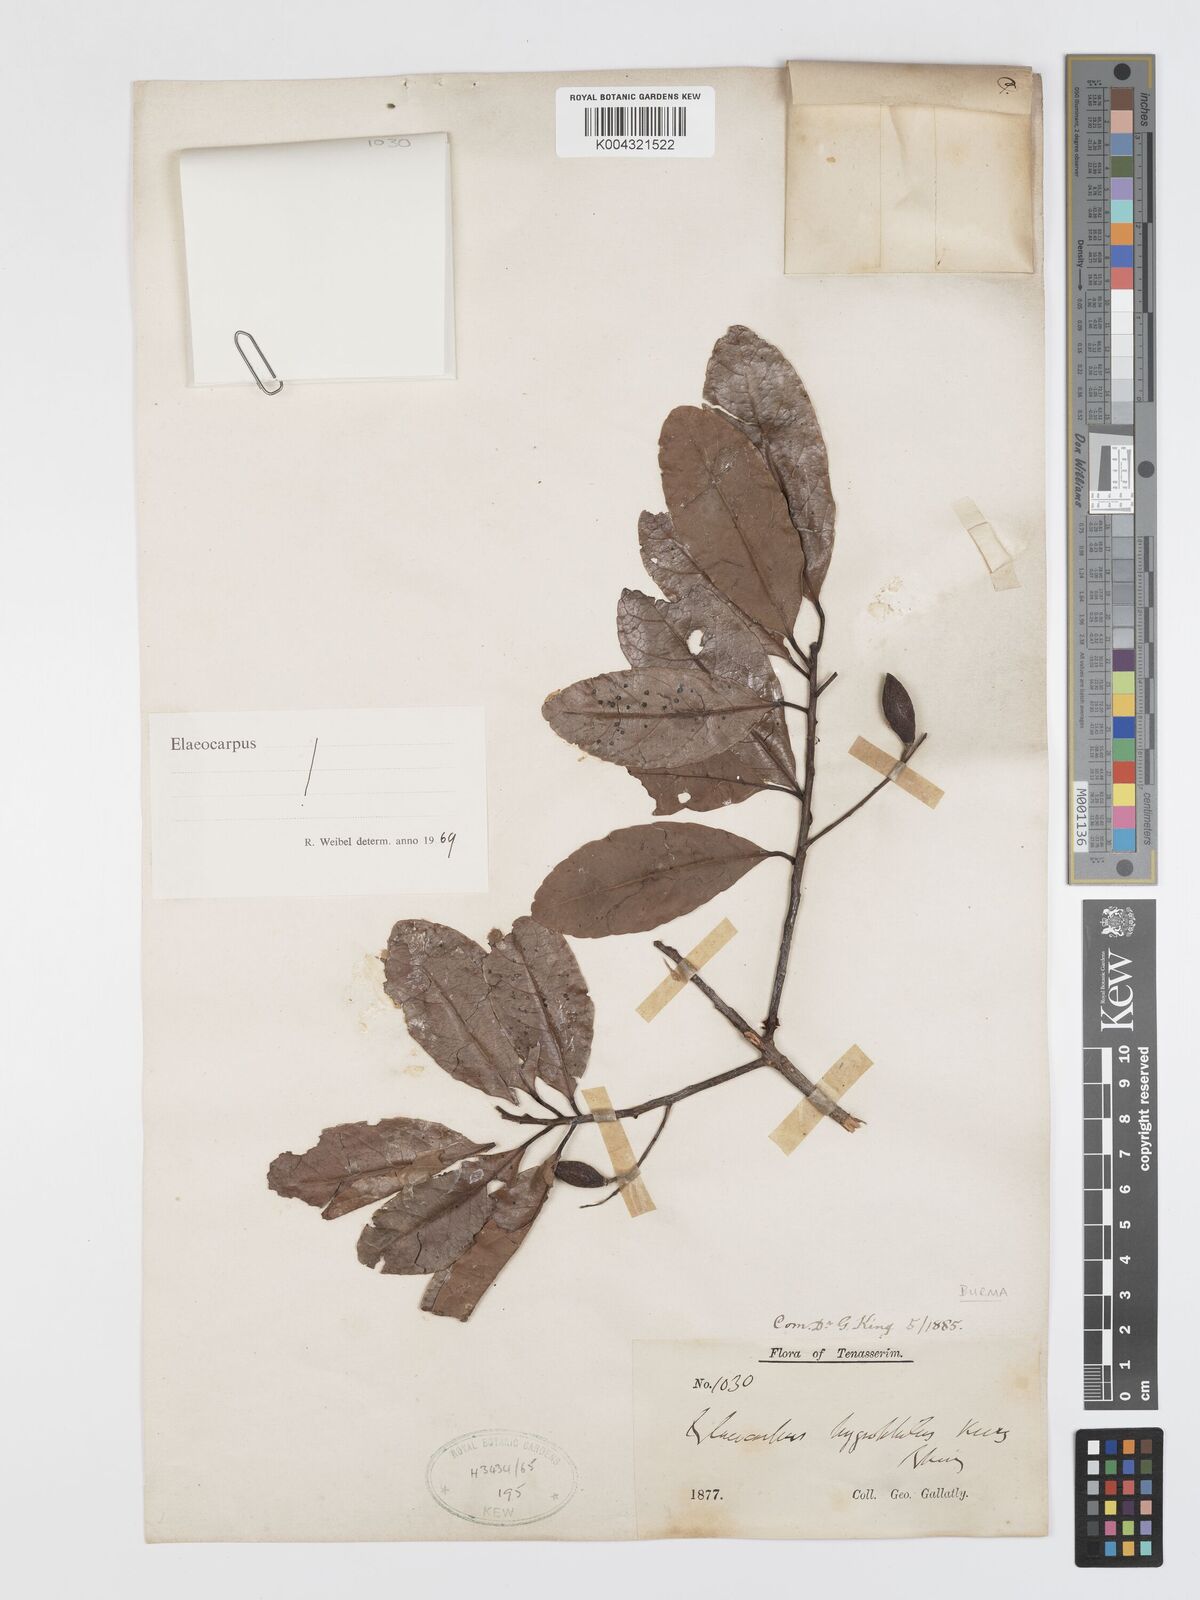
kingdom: Plantae
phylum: Tracheophyta
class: Magnoliopsida
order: Oxalidales
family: Elaeocarpaceae
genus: Elaeocarpus
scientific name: Elaeocarpus hygrophilus
